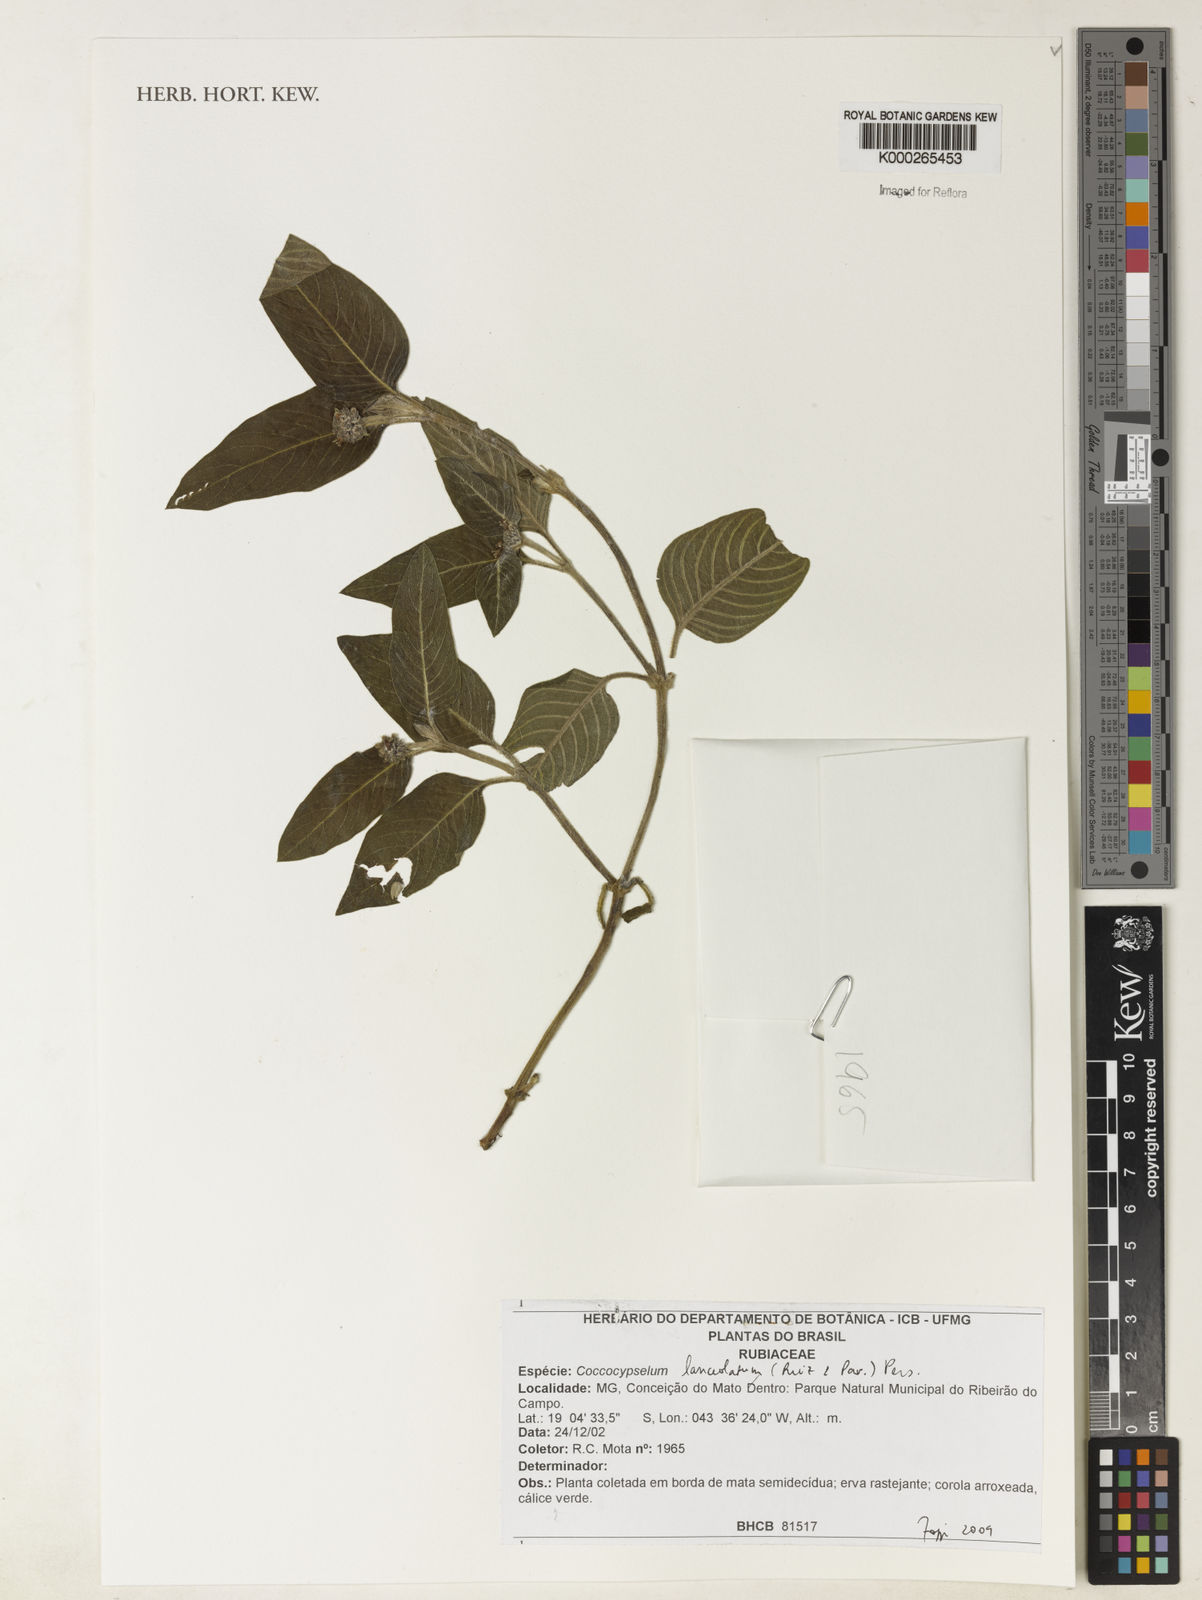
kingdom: Plantae
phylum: Tracheophyta
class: Magnoliopsida
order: Gentianales
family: Rubiaceae
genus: Coccocypselum
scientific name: Coccocypselum lanceolatum
